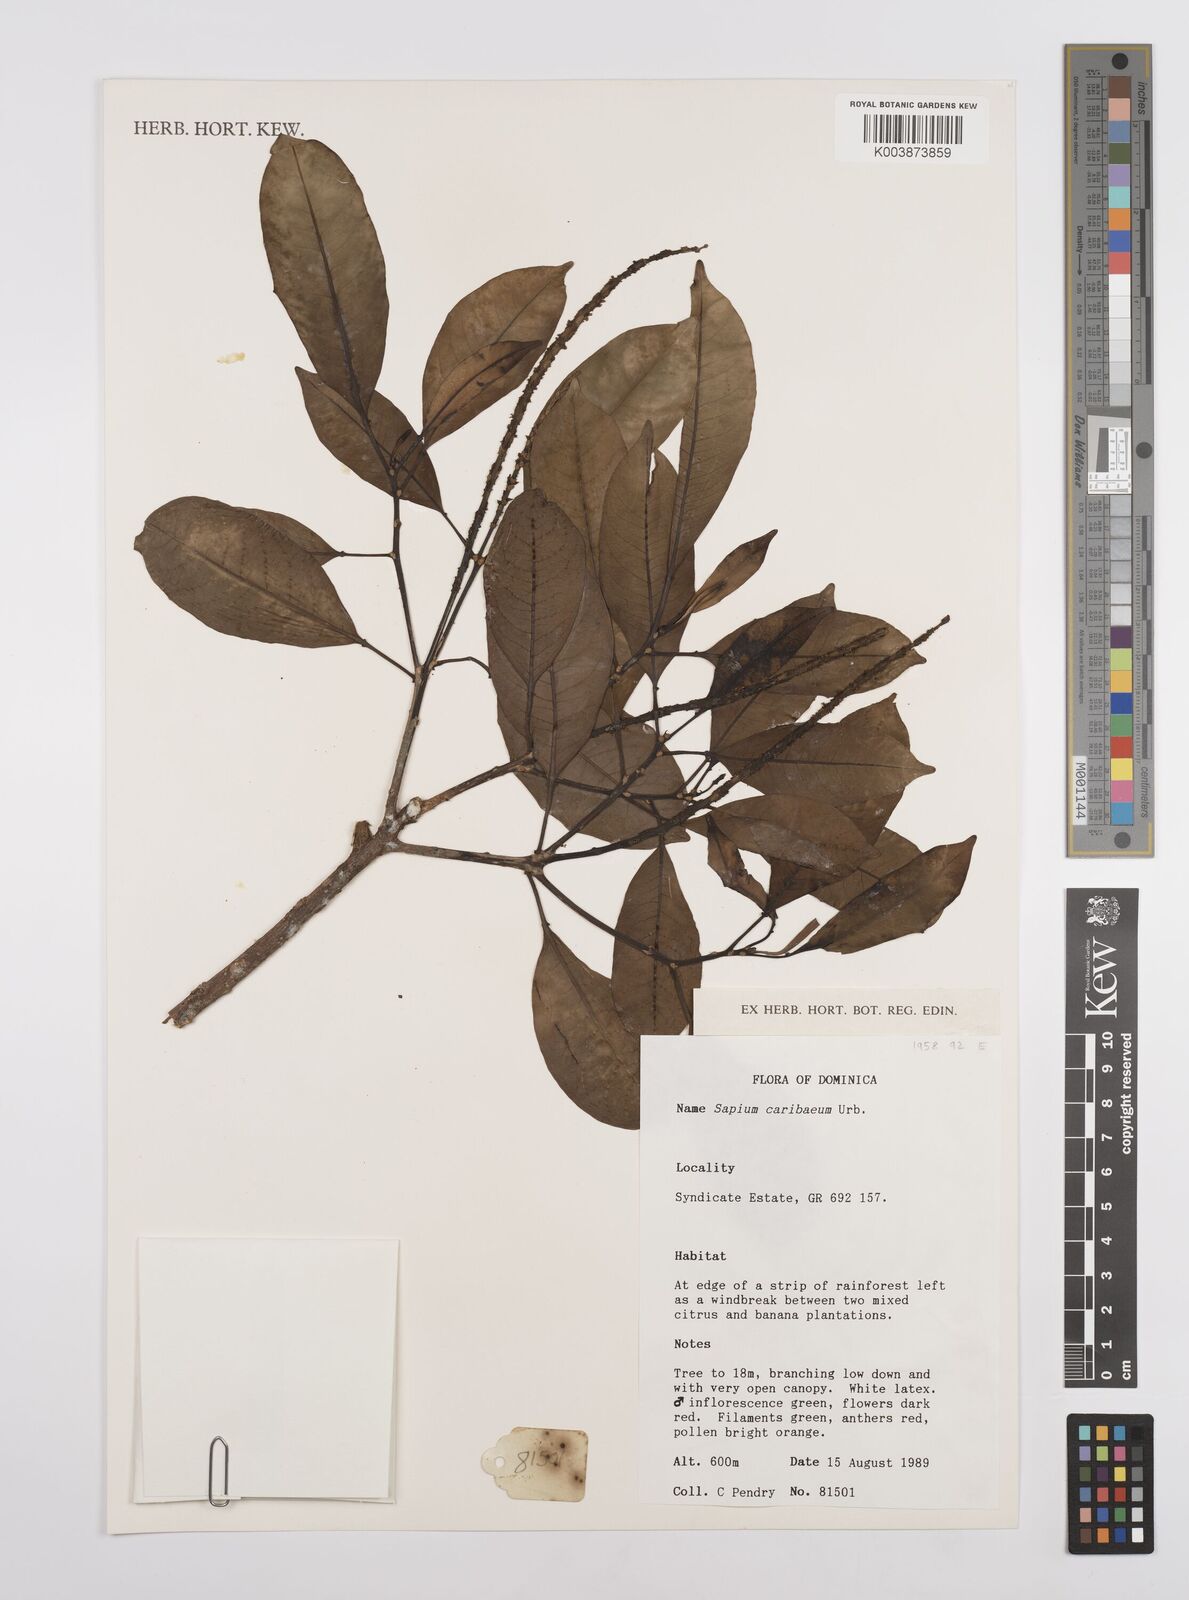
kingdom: Plantae
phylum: Tracheophyta
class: Magnoliopsida
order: Malpighiales
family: Euphorbiaceae
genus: Sapium
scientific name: Sapium glandulosum
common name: Milktree
